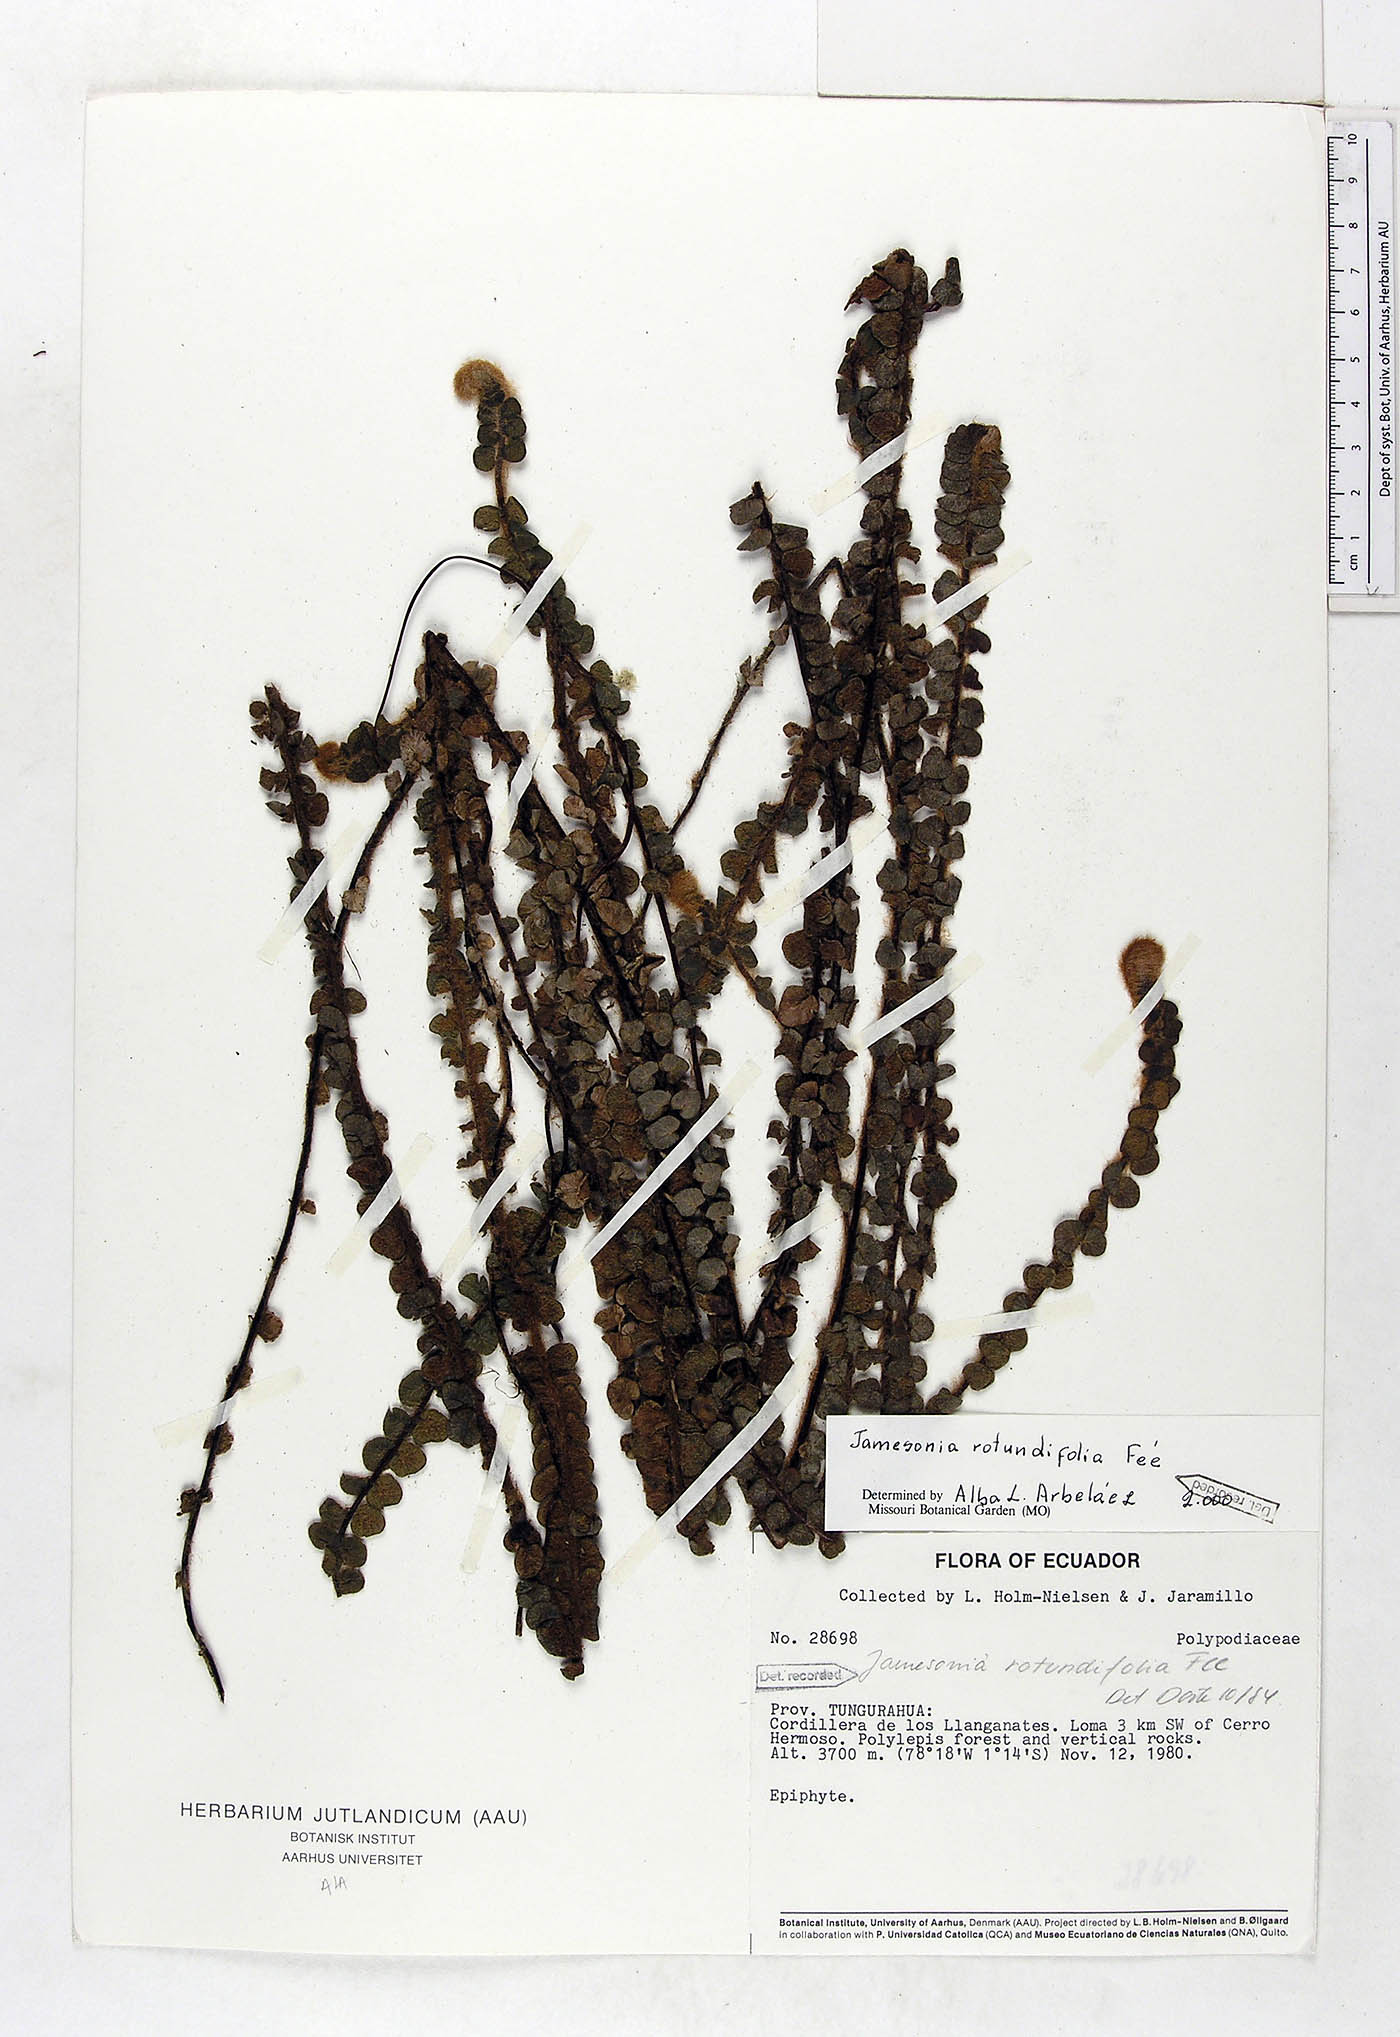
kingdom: Plantae
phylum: Tracheophyta
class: Polypodiopsida
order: Polypodiales
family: Pteridaceae
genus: Jamesonia
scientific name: Jamesonia rotundifolia
